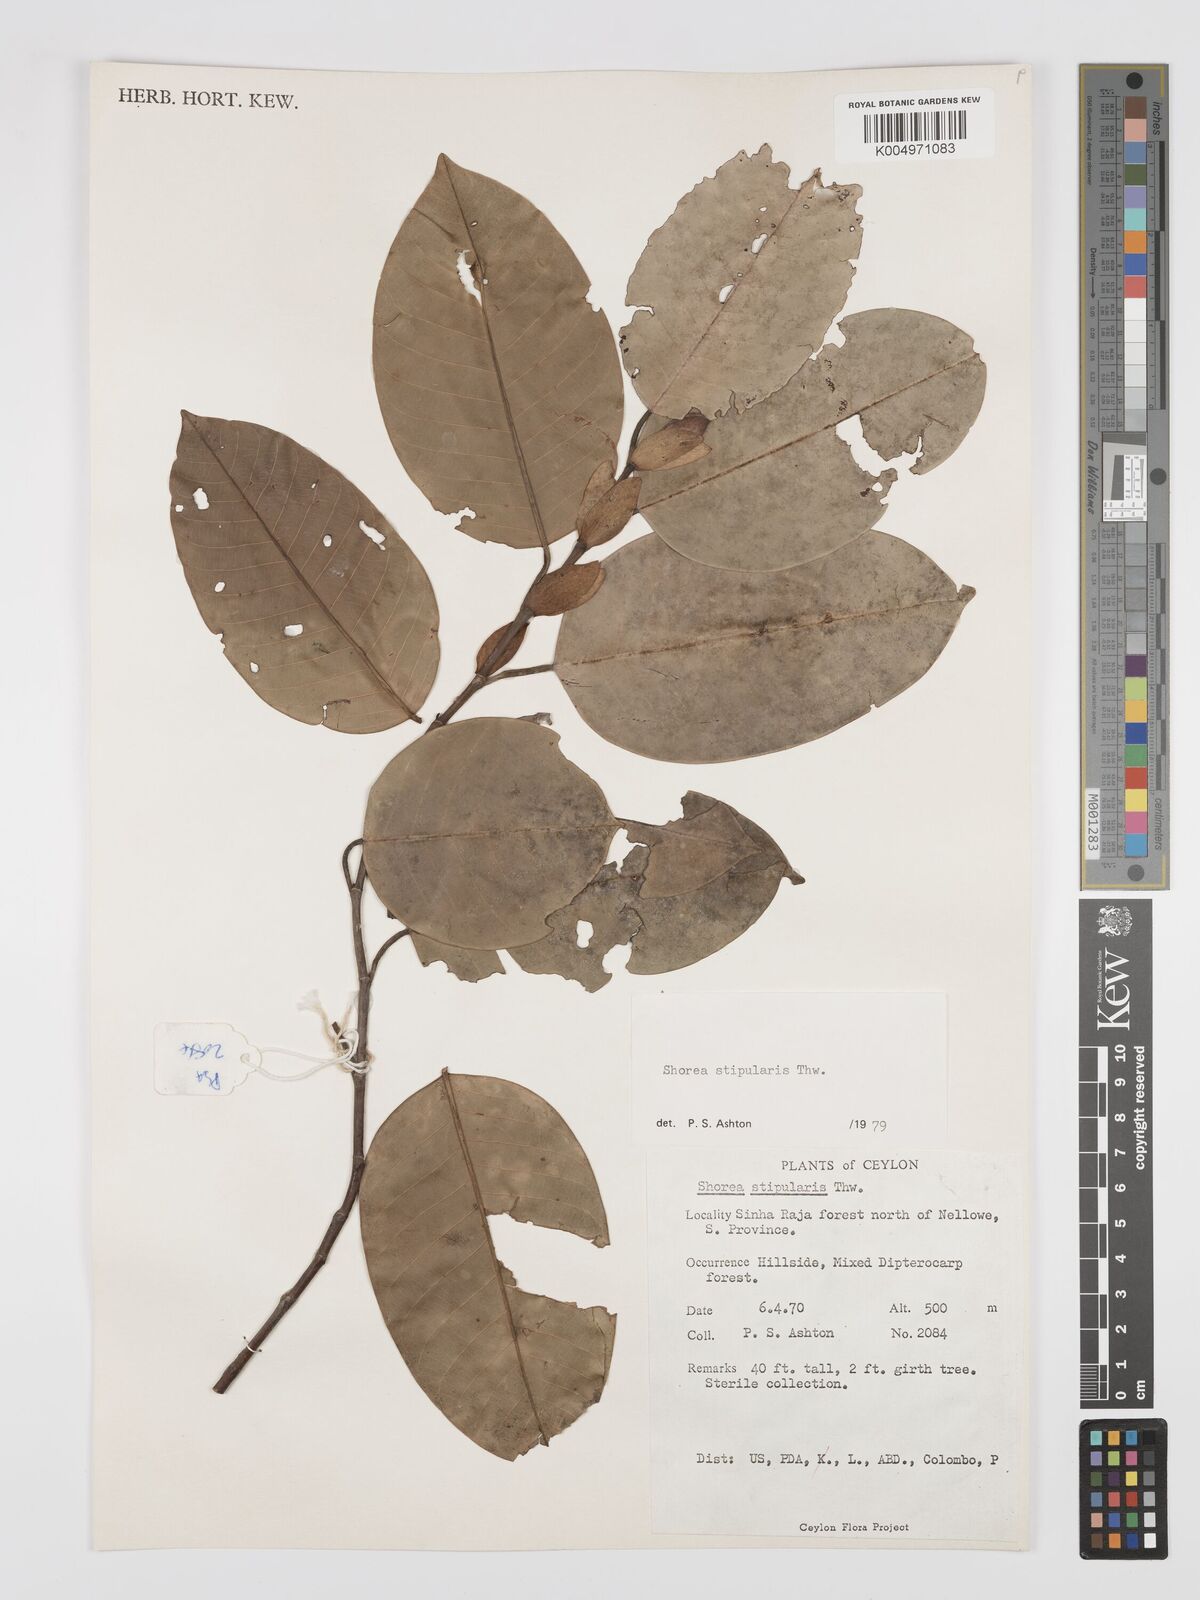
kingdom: Plantae
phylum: Tracheophyta
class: Magnoliopsida
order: Malvales
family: Dipterocarpaceae
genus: Anthoshorea
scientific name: Anthoshorea stipularis
